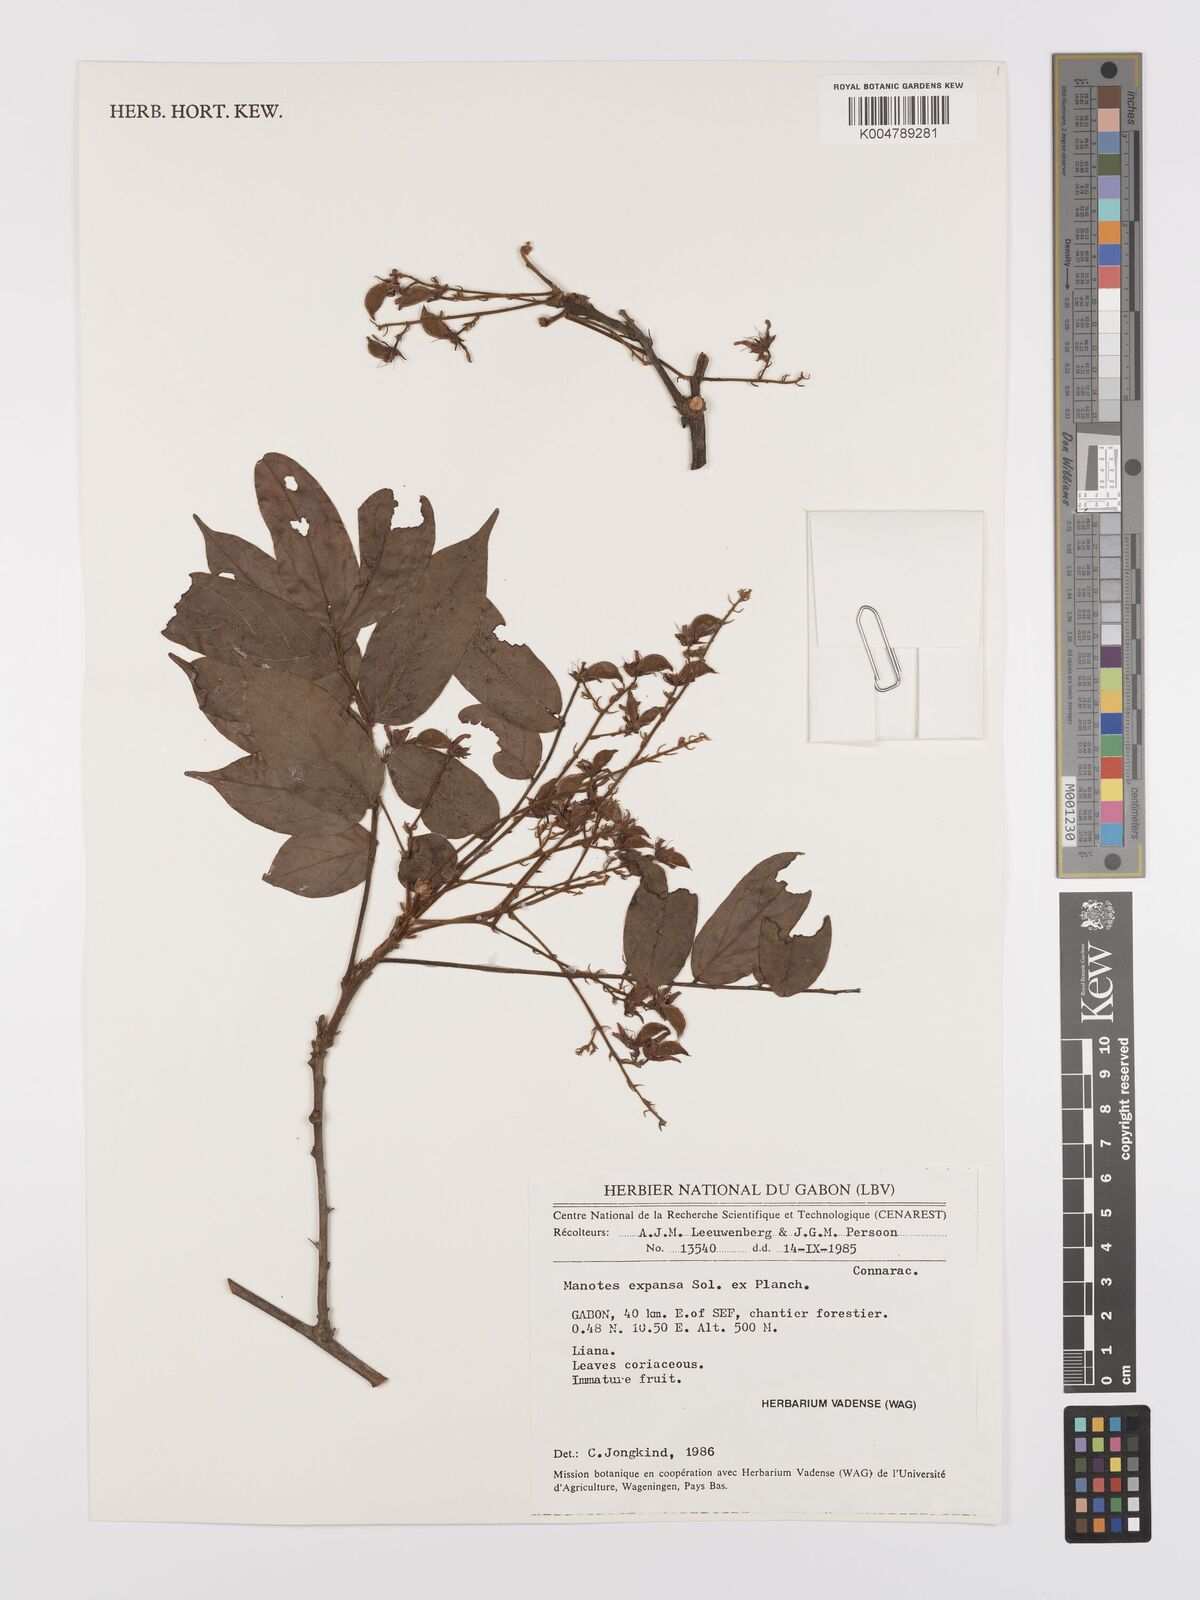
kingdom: Plantae
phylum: Tracheophyta
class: Magnoliopsida
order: Oxalidales
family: Connaraceae
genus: Manotes
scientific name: Manotes expansa
